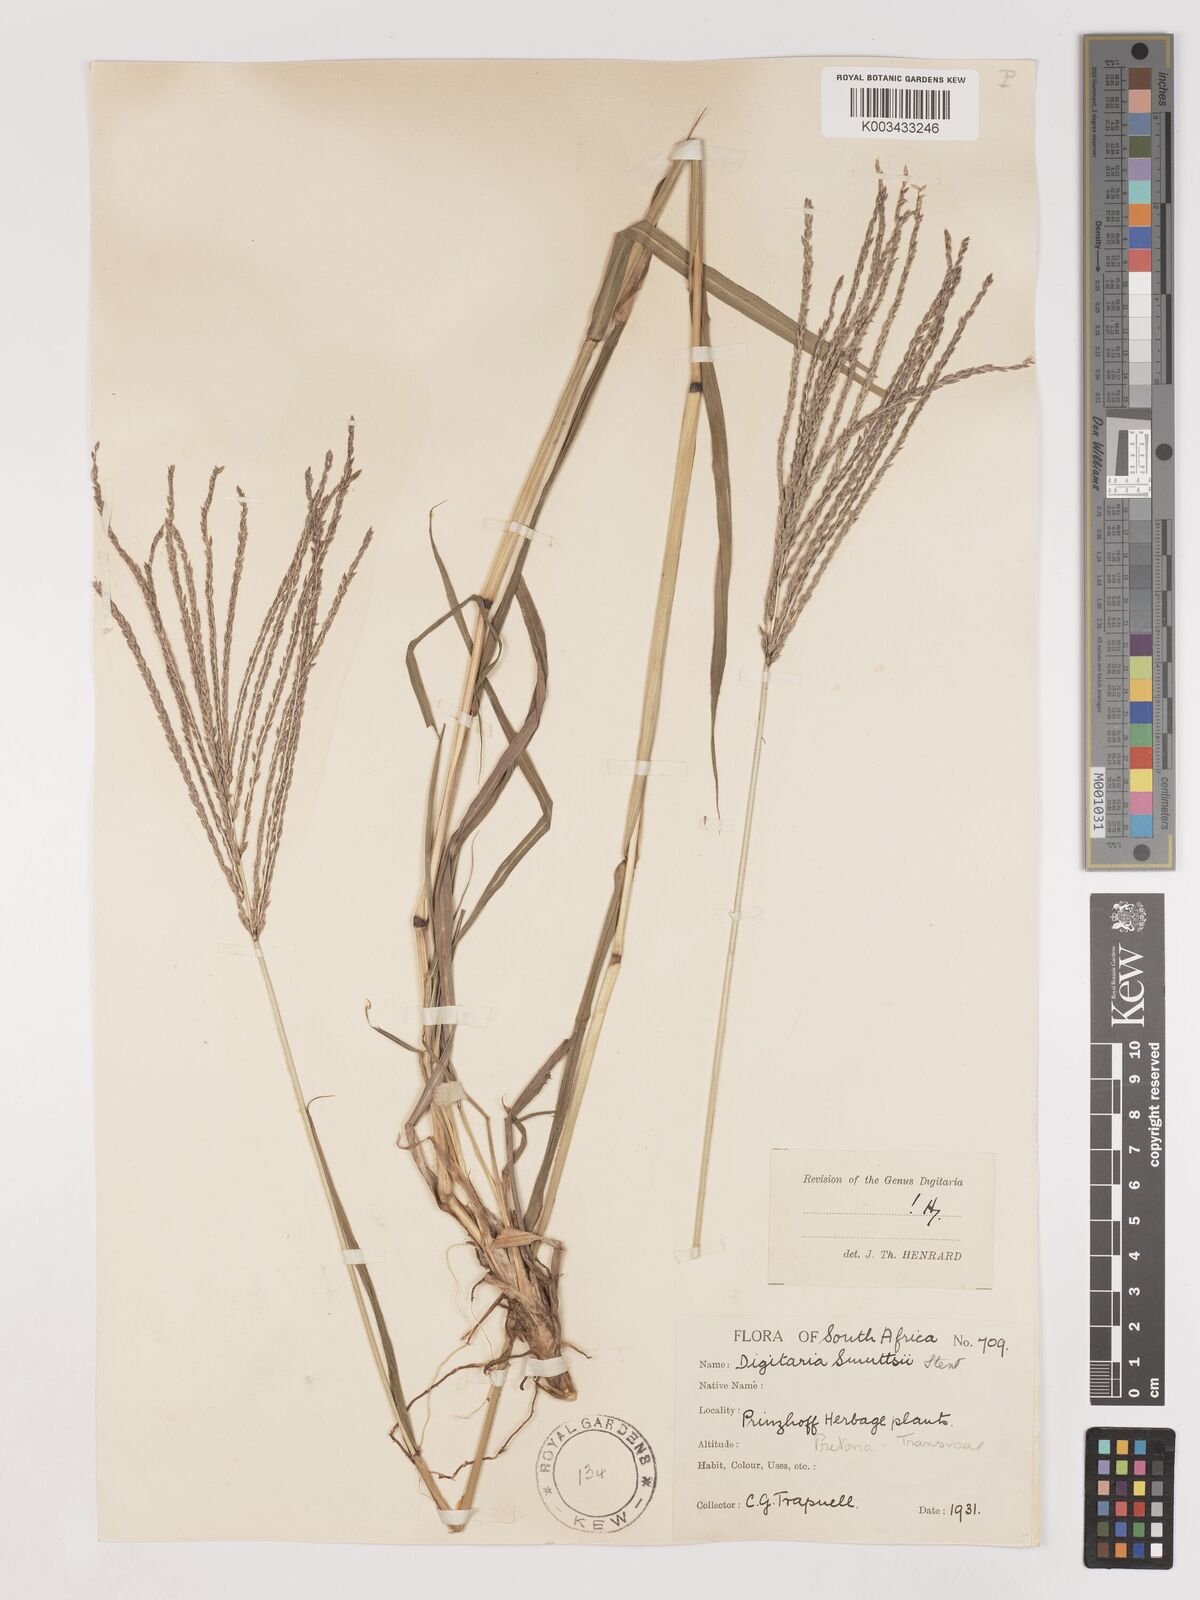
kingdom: Plantae
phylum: Tracheophyta
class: Liliopsida
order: Poales
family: Poaceae
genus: Digitaria
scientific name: Digitaria eriantha
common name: Digitgrass
